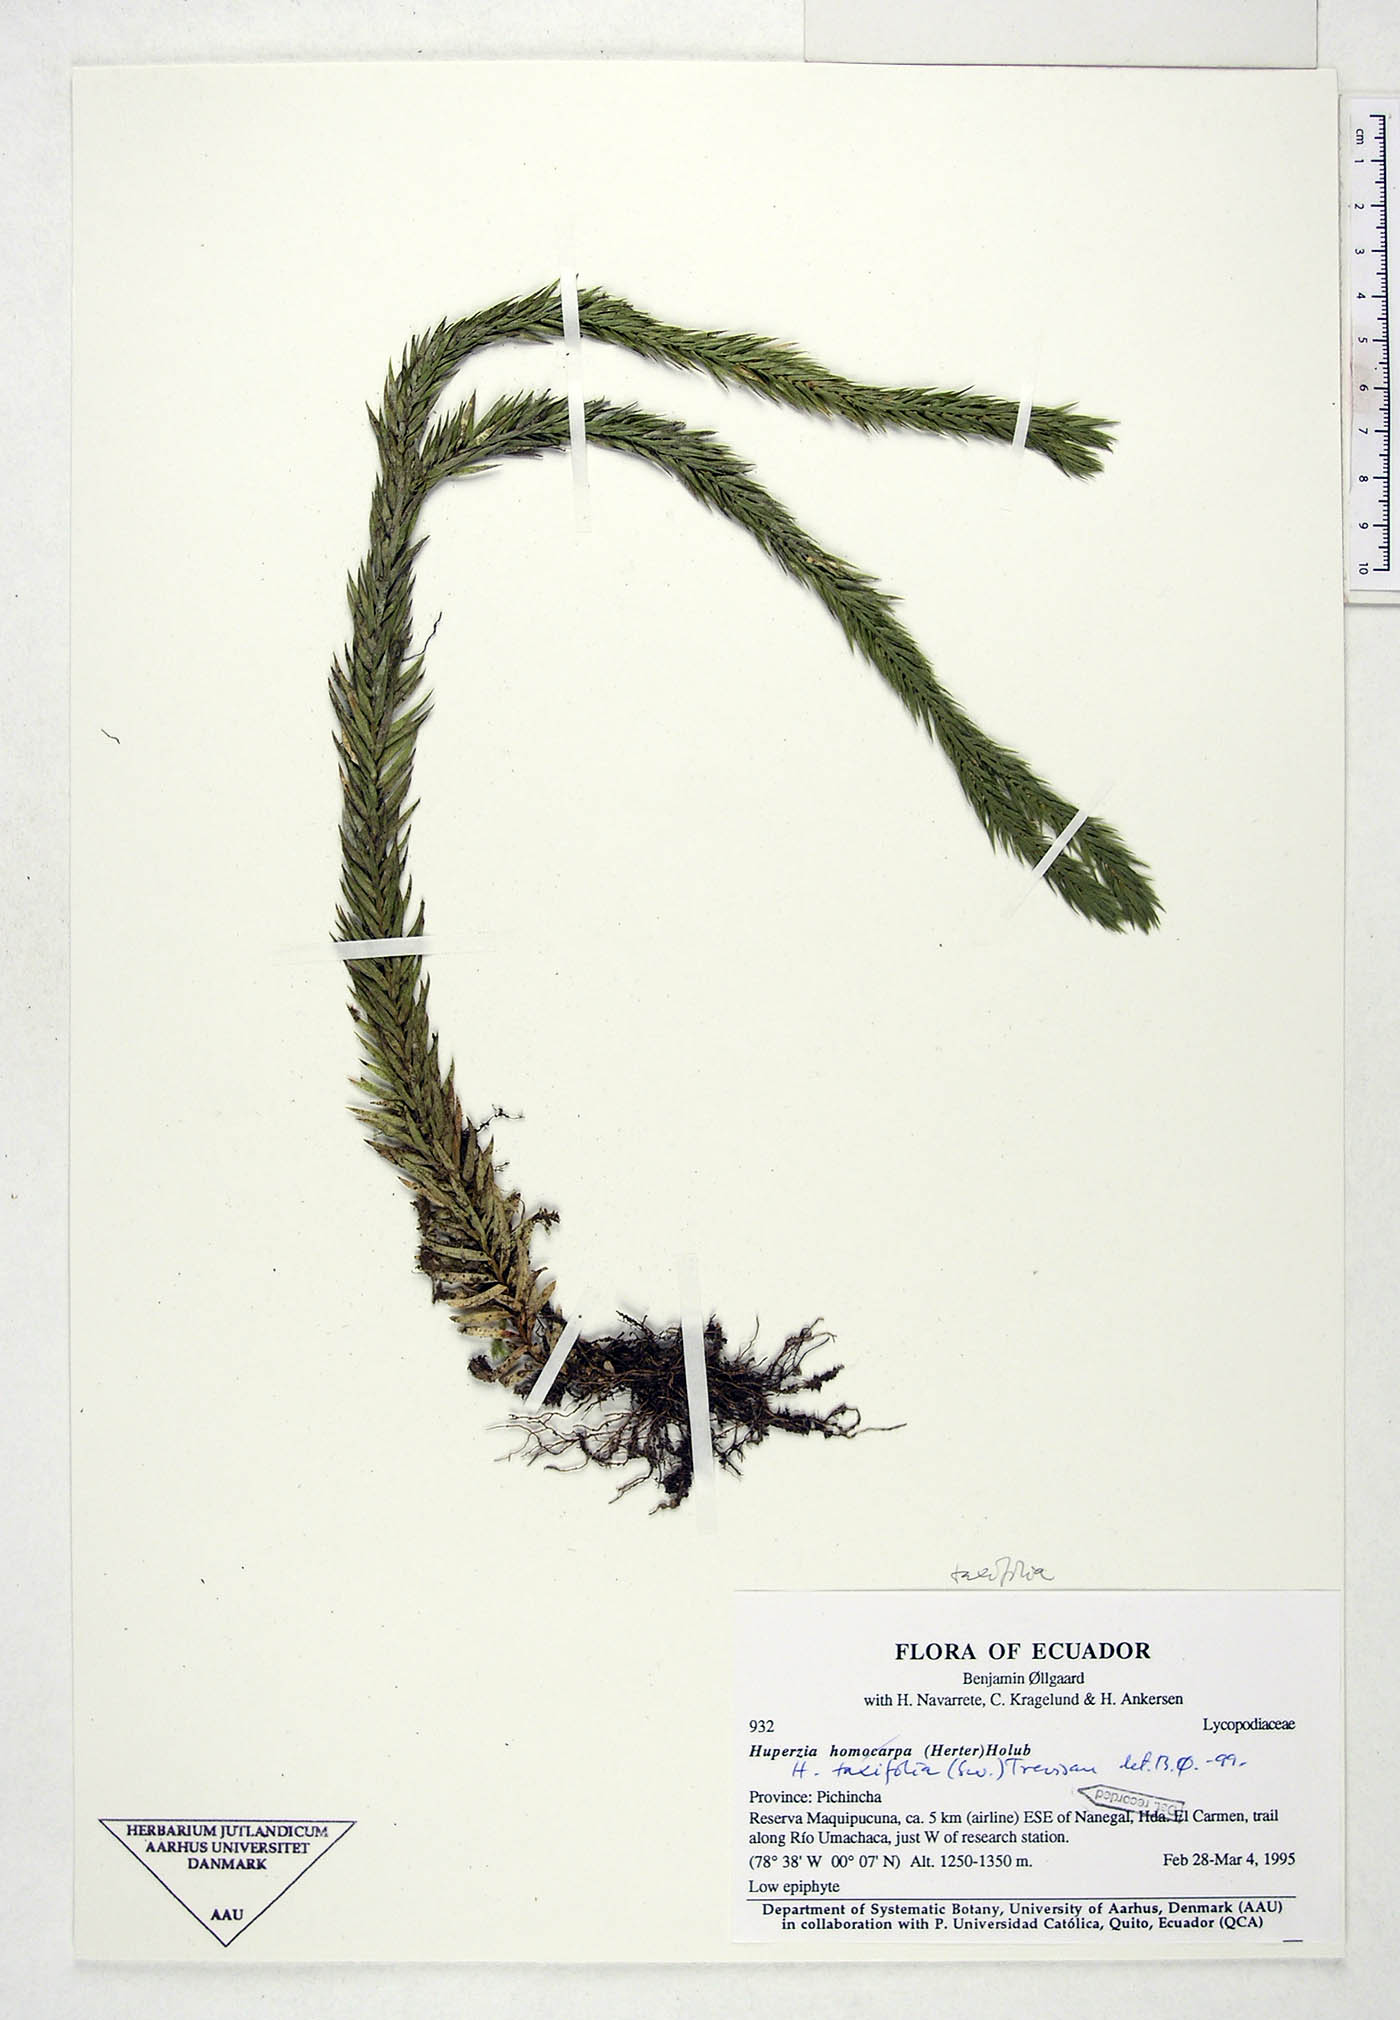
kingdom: Plantae
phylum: Tracheophyta
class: Lycopodiopsida
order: Lycopodiales
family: Lycopodiaceae
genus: Phlegmariurus
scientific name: Phlegmariurus taxifolius
